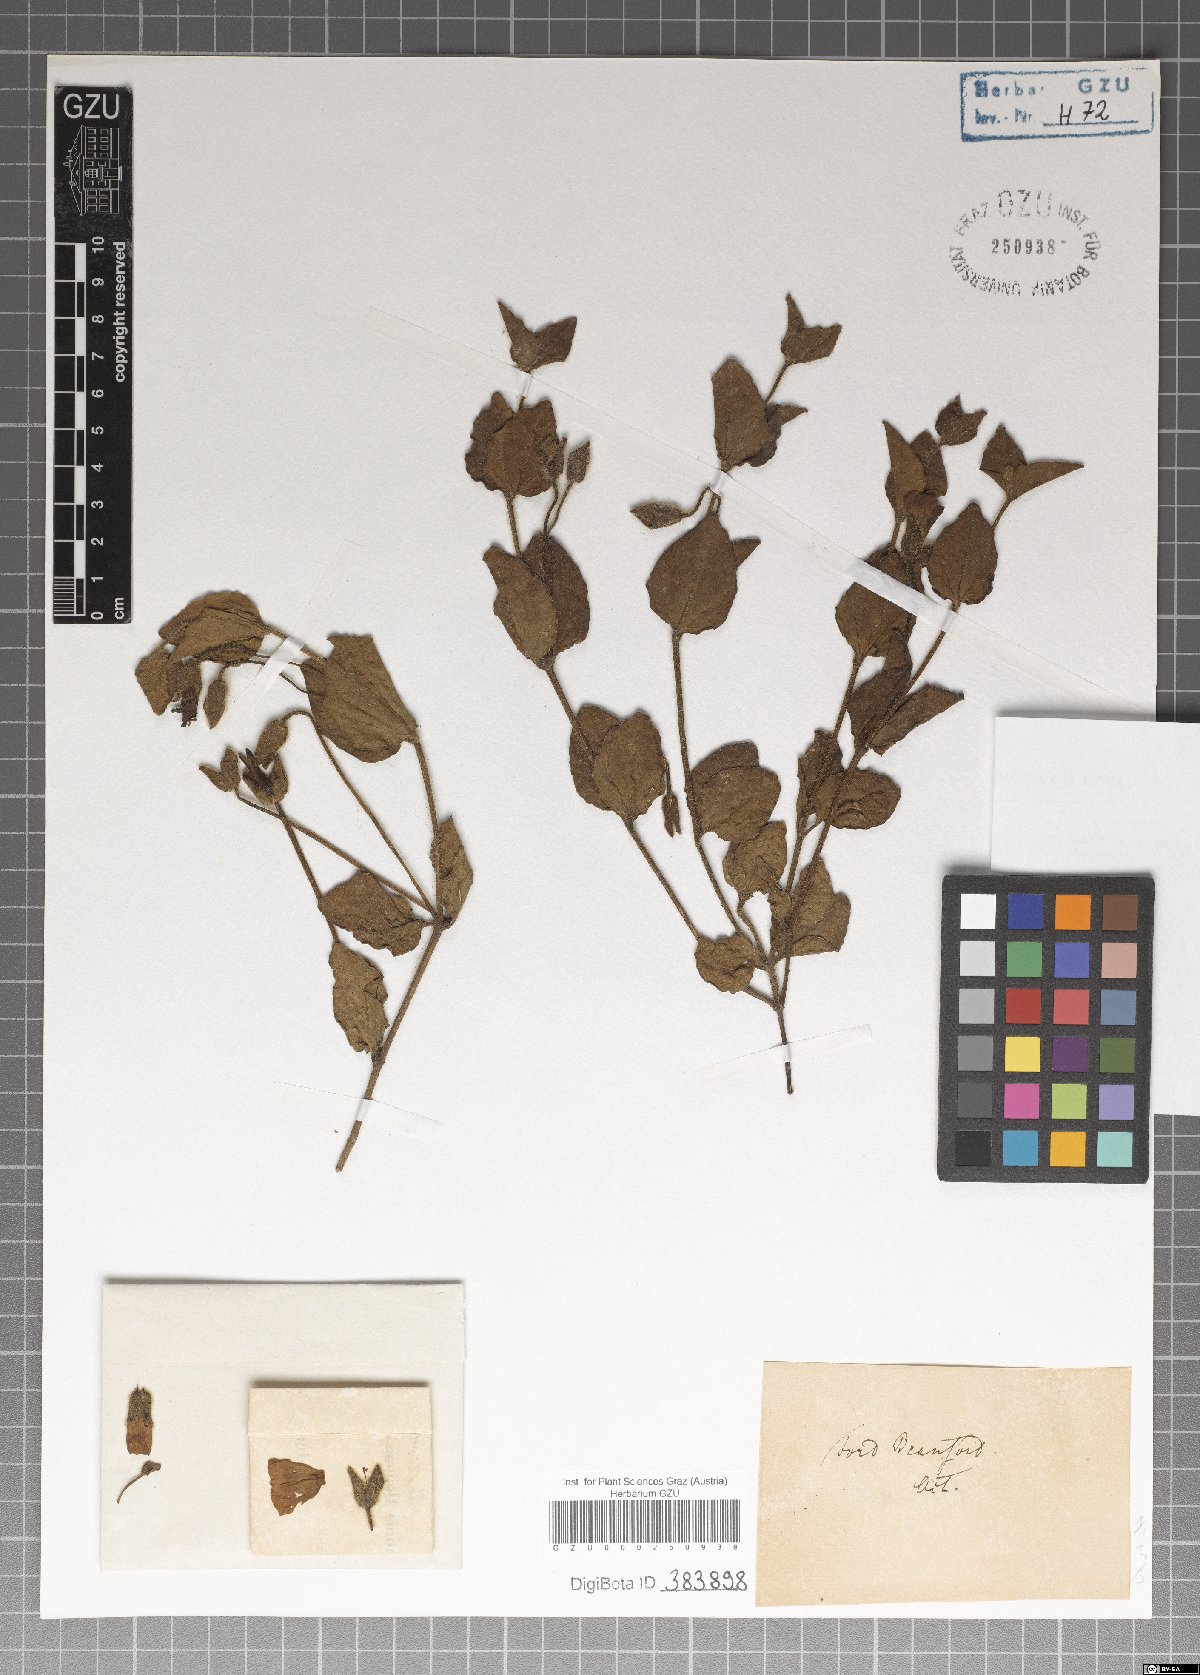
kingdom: Plantae
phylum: Tracheophyta
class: Magnoliopsida
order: Lamiales
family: Acanthaceae
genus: Thunbergia
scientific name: Thunbergia capensis
